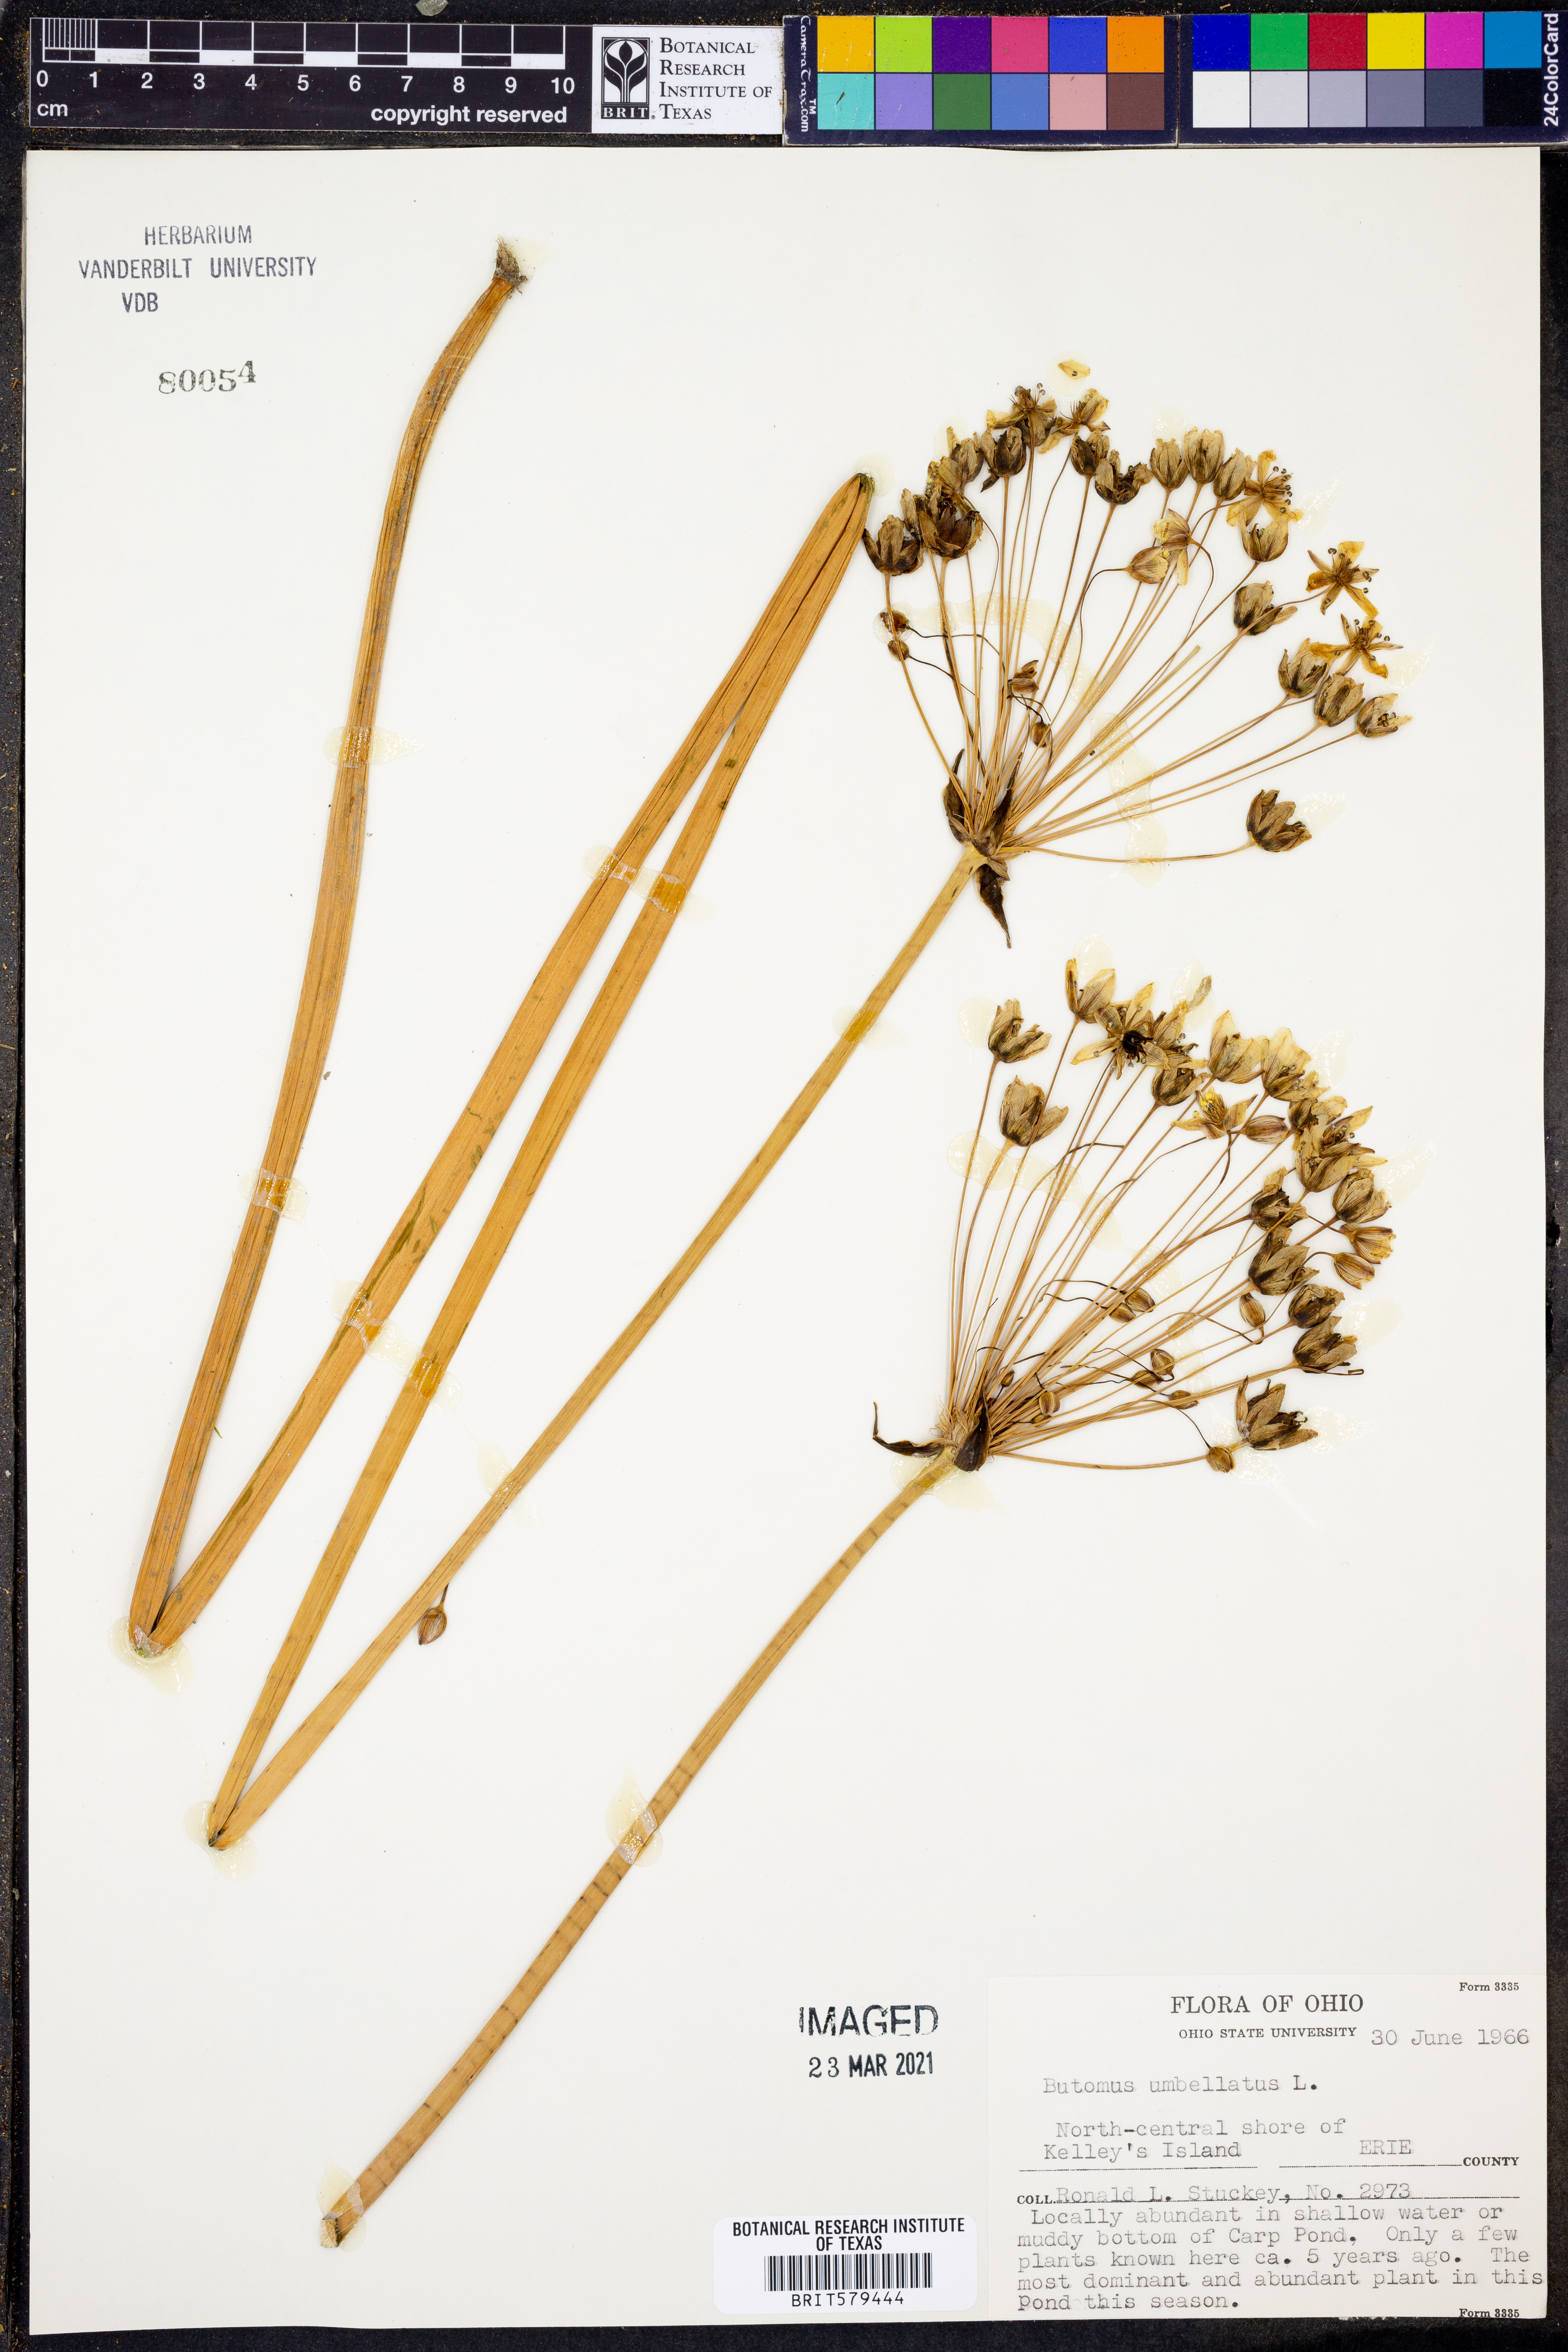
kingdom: Plantae
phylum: Tracheophyta
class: Liliopsida
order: Alismatales
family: Butomaceae
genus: Butomus
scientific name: Butomus umbellatus
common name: Flowering-rush
